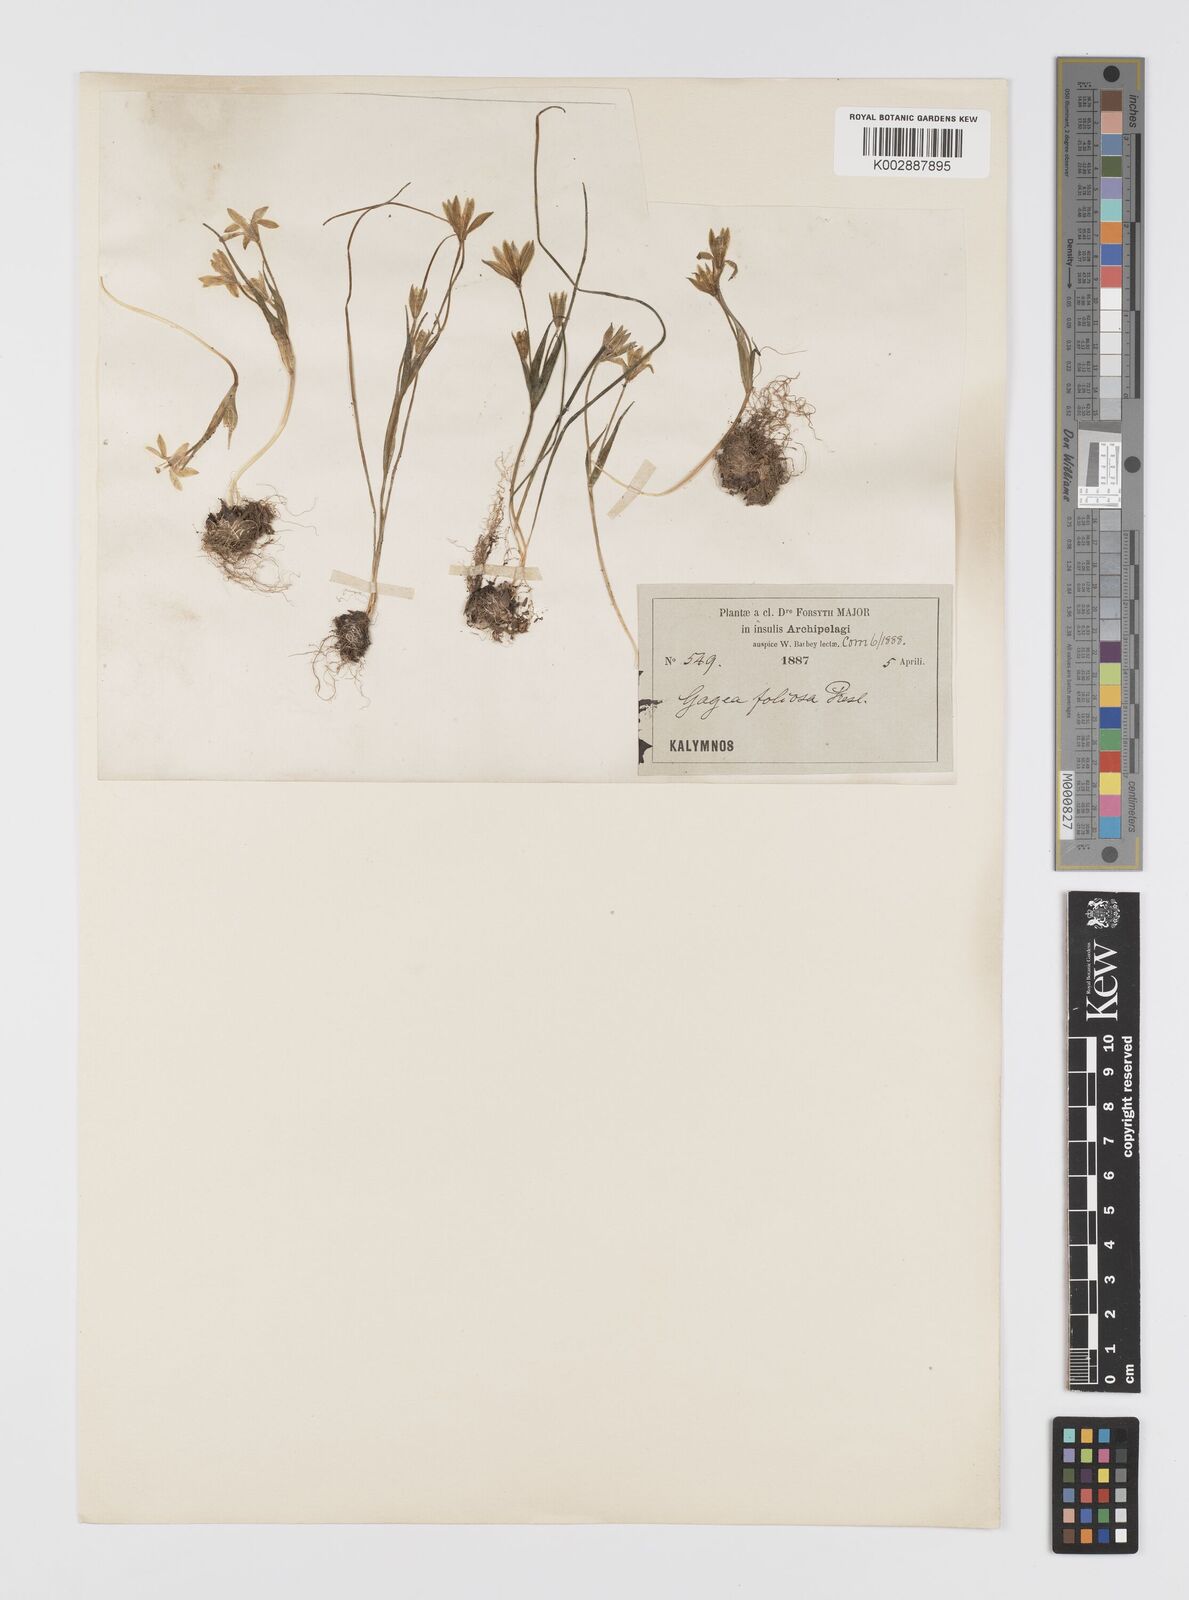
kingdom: Plantae
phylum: Tracheophyta
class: Liliopsida
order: Liliales
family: Liliaceae
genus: Gagea
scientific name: Gagea peduncularis
